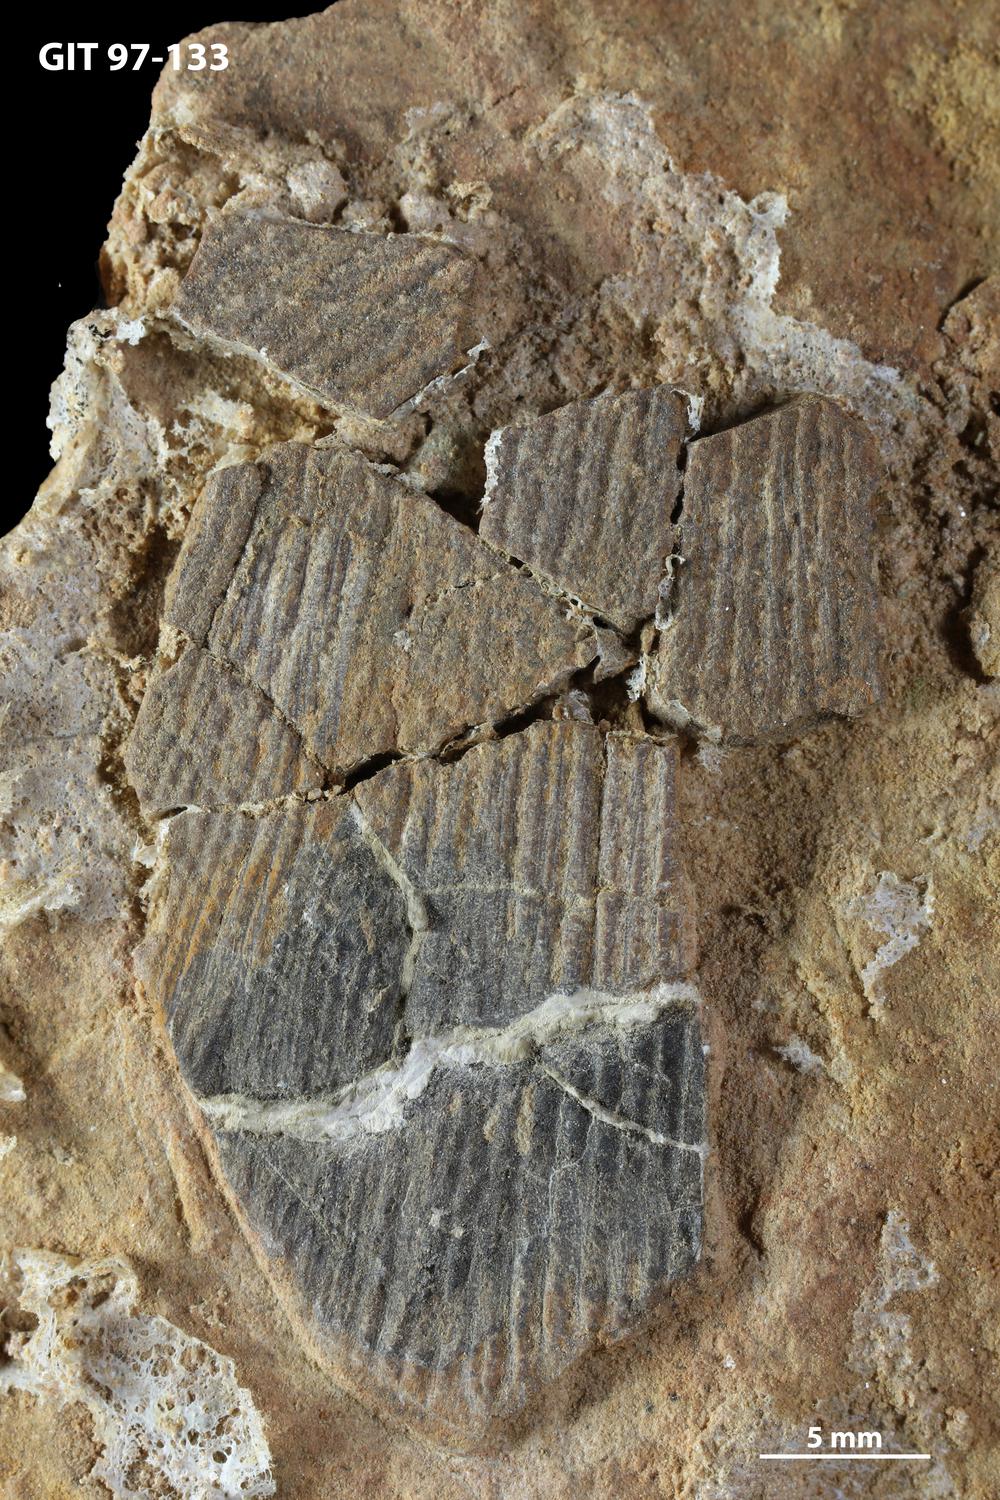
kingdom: Animalia
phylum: Chordata
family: Holonematidae
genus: Holonema
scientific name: Holonema
